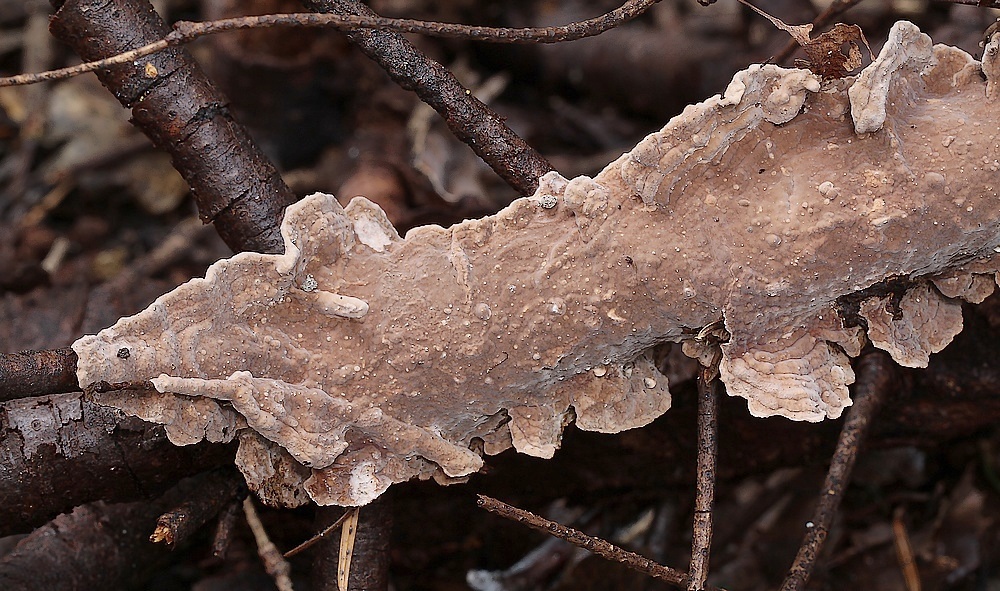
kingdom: Fungi
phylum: Basidiomycota
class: Agaricomycetes
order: Russulales
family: Echinodontiaceae
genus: Amylostereum
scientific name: Amylostereum chailletii
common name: gran-lædersvamp
